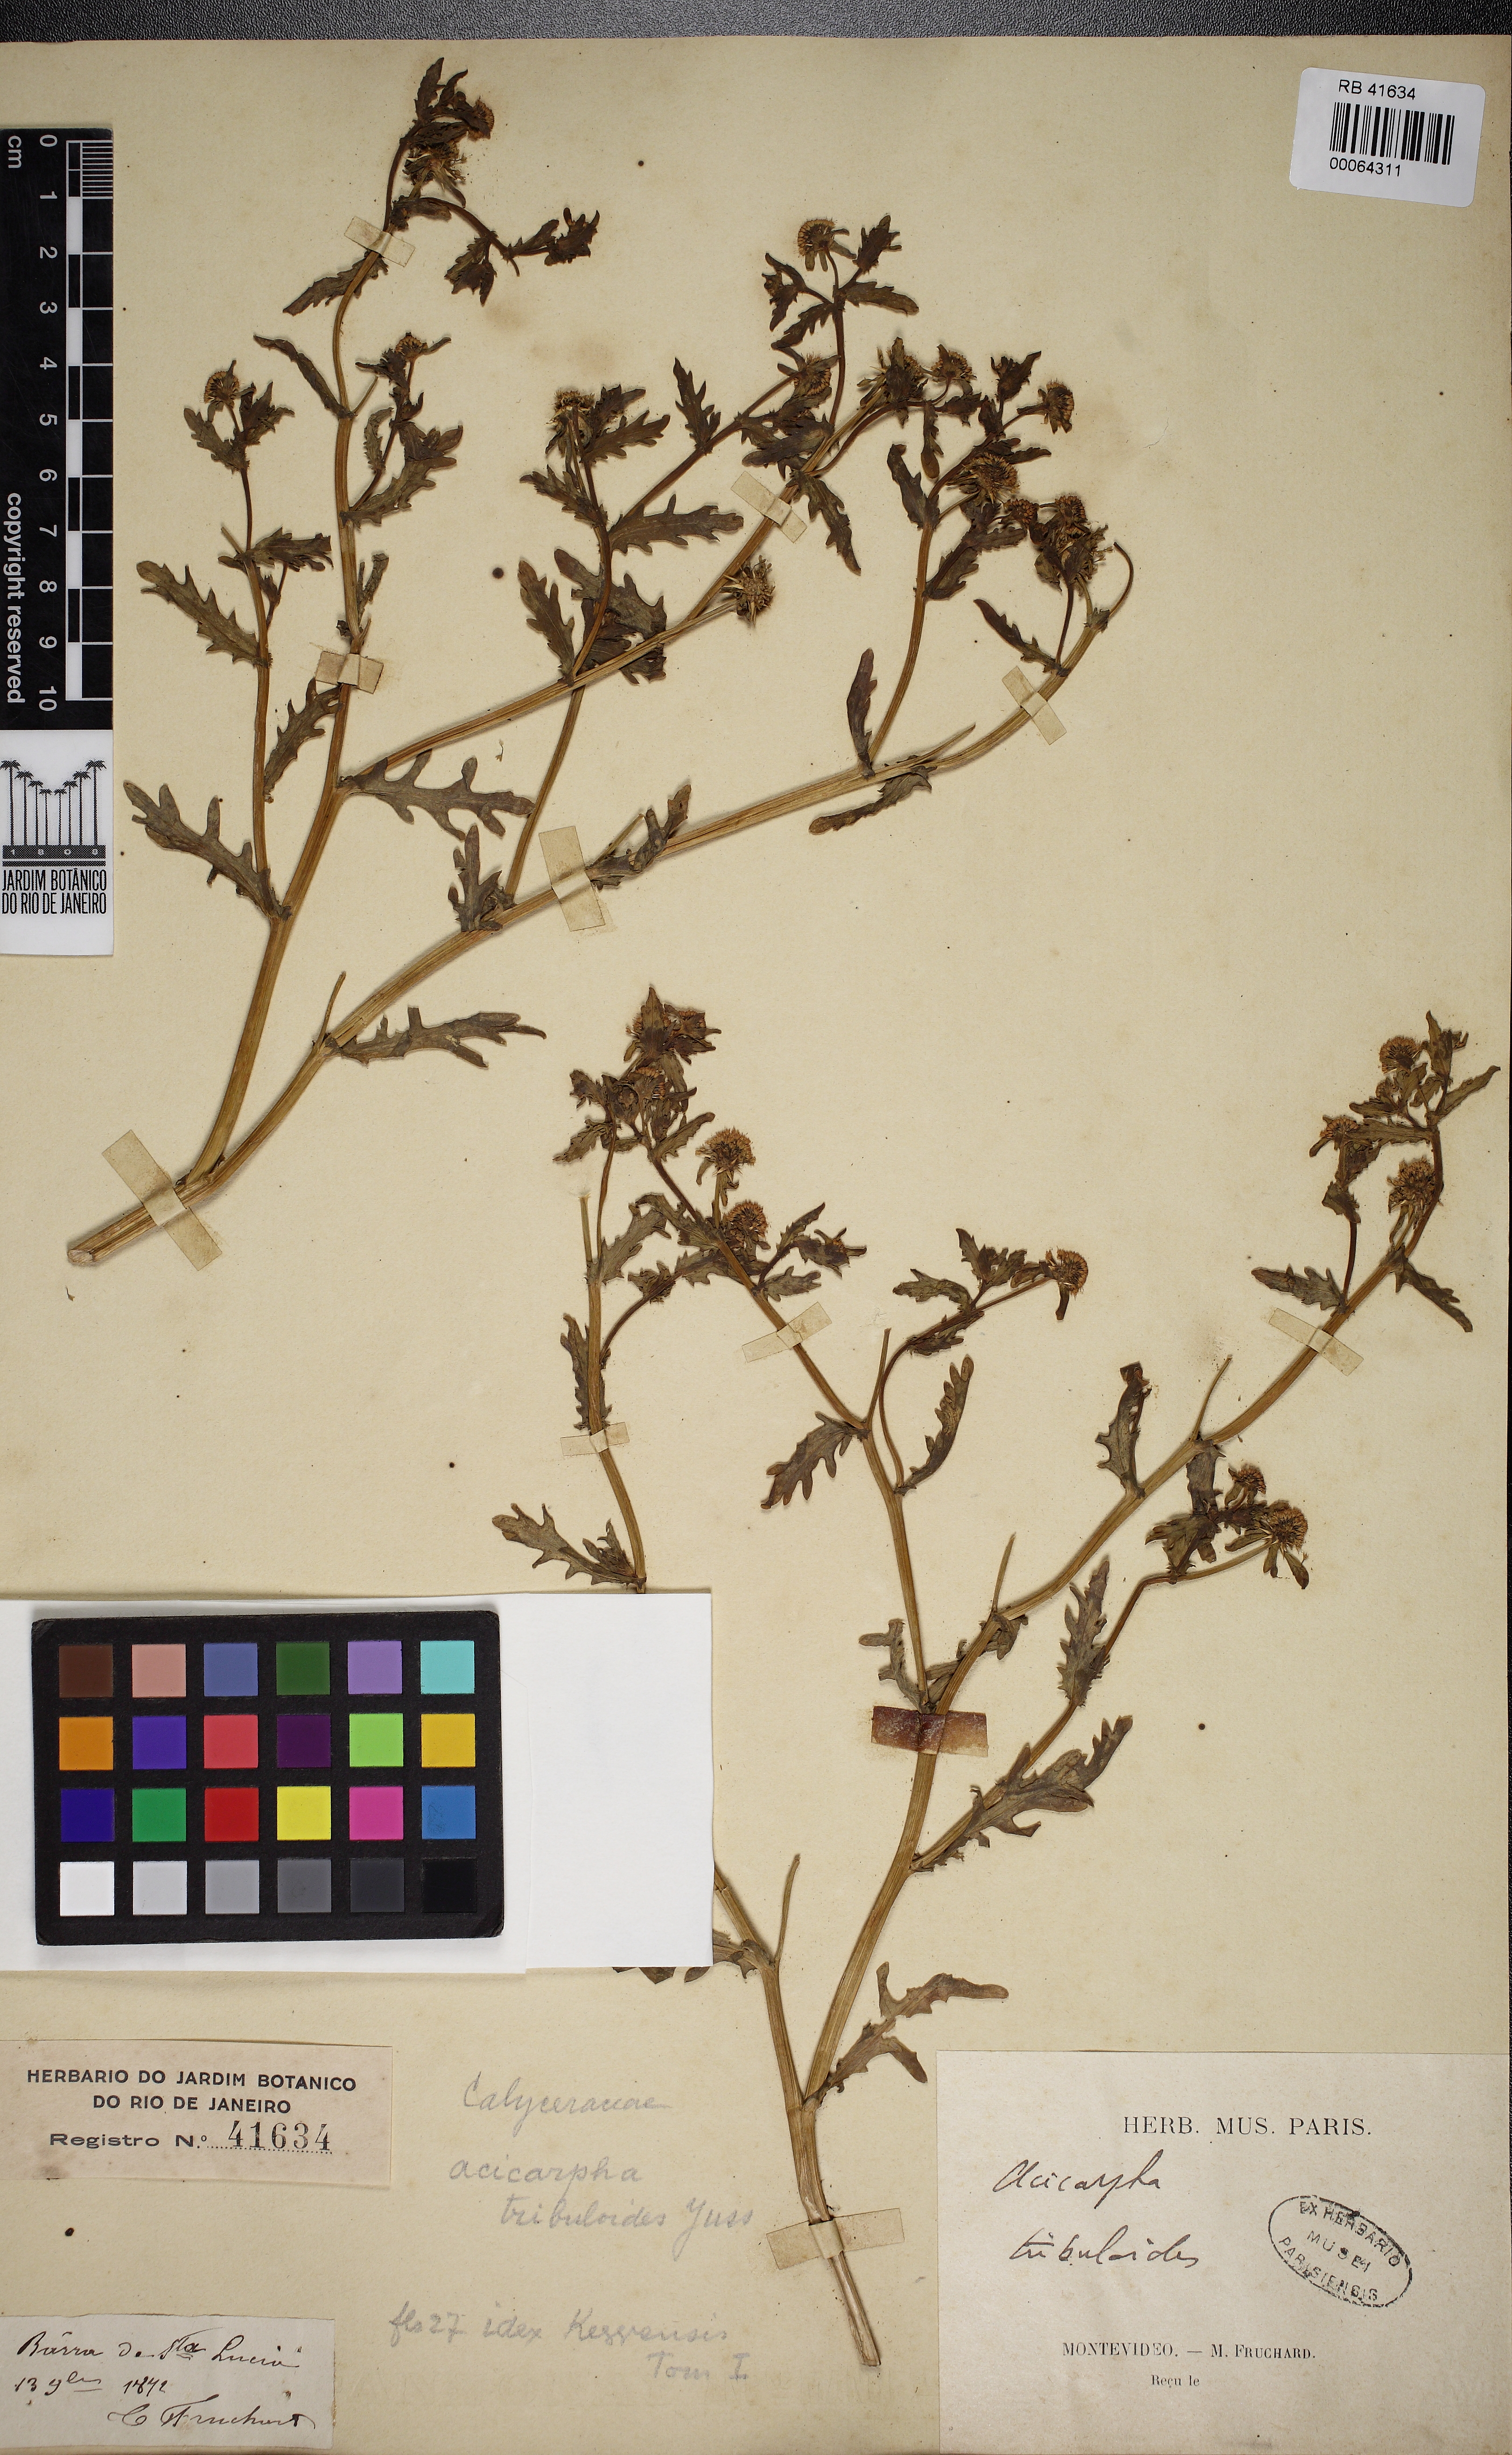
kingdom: Plantae
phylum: Tracheophyta
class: Magnoliopsida
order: Asterales
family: Calyceraceae
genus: Acicarpha
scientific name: Acicarpha tribuloides
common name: Madam gorgon
